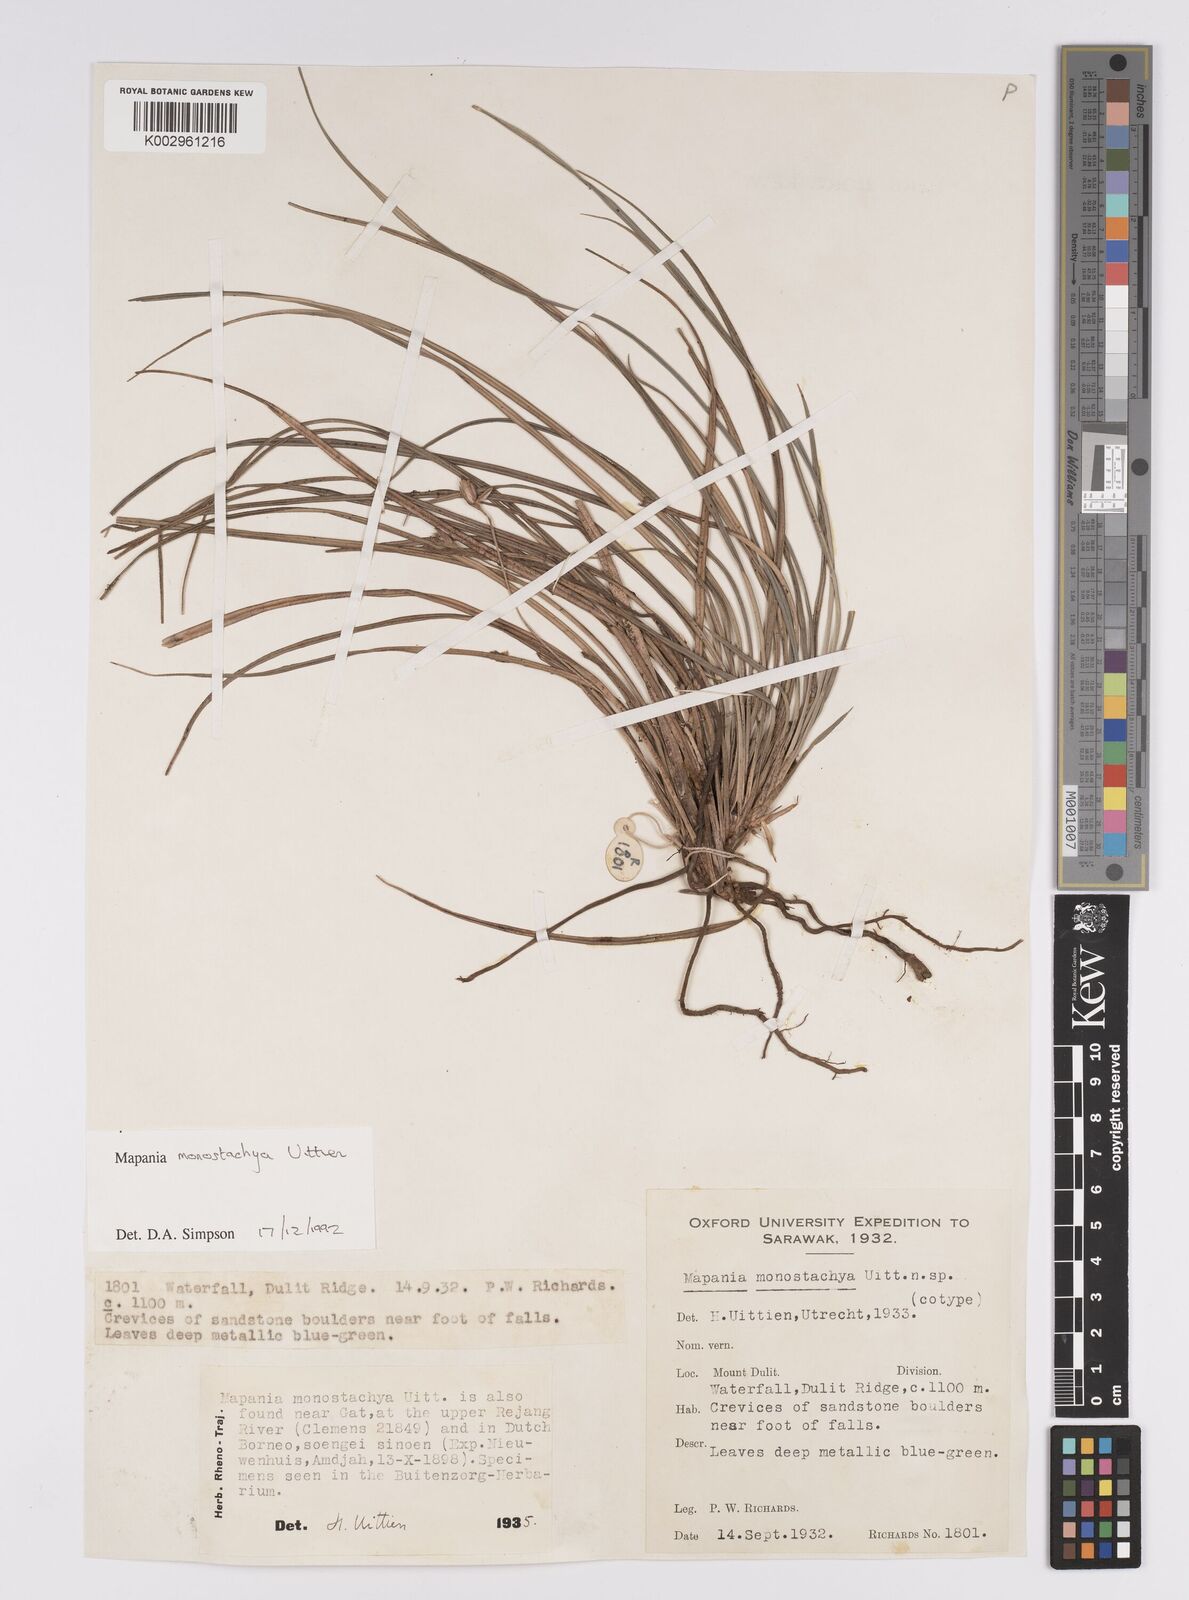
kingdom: Plantae
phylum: Tracheophyta
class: Liliopsida
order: Poales
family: Cyperaceae
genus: Mapania
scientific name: Mapania monostachya
